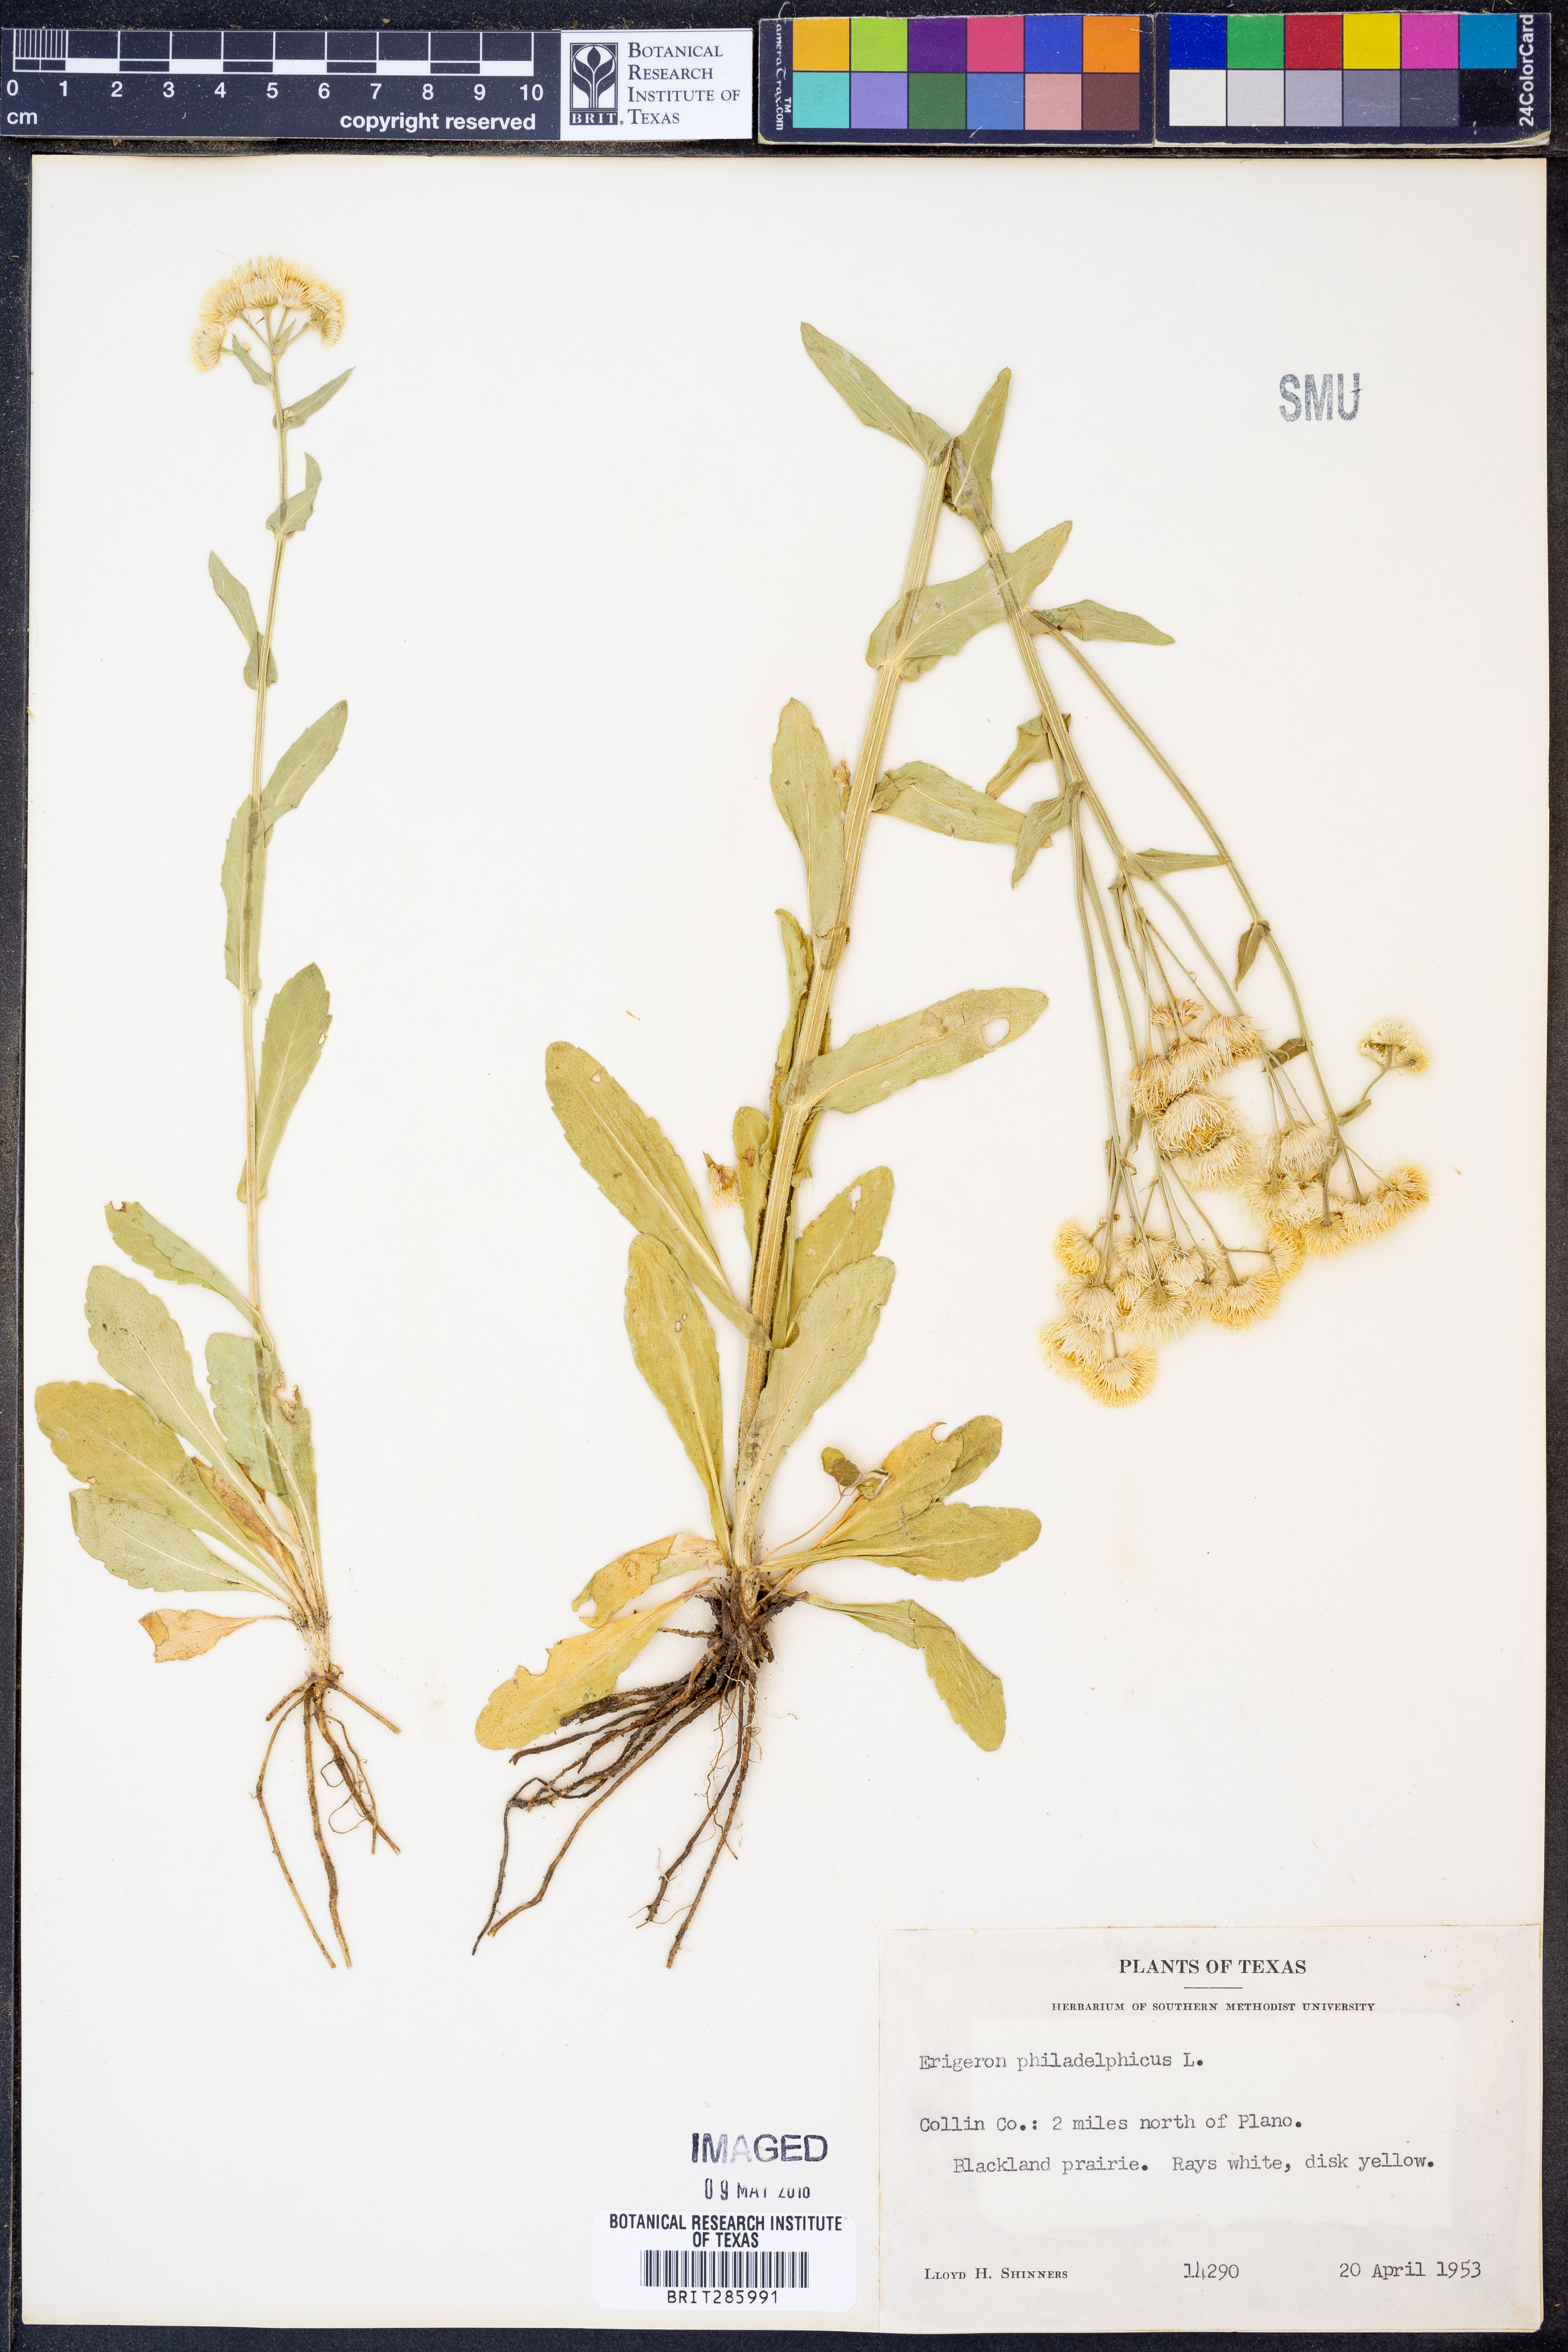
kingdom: Plantae
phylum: Tracheophyta
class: Magnoliopsida
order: Asterales
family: Asteraceae
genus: Erigeron
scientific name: Erigeron philadelphicus
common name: Robin's-plantain
